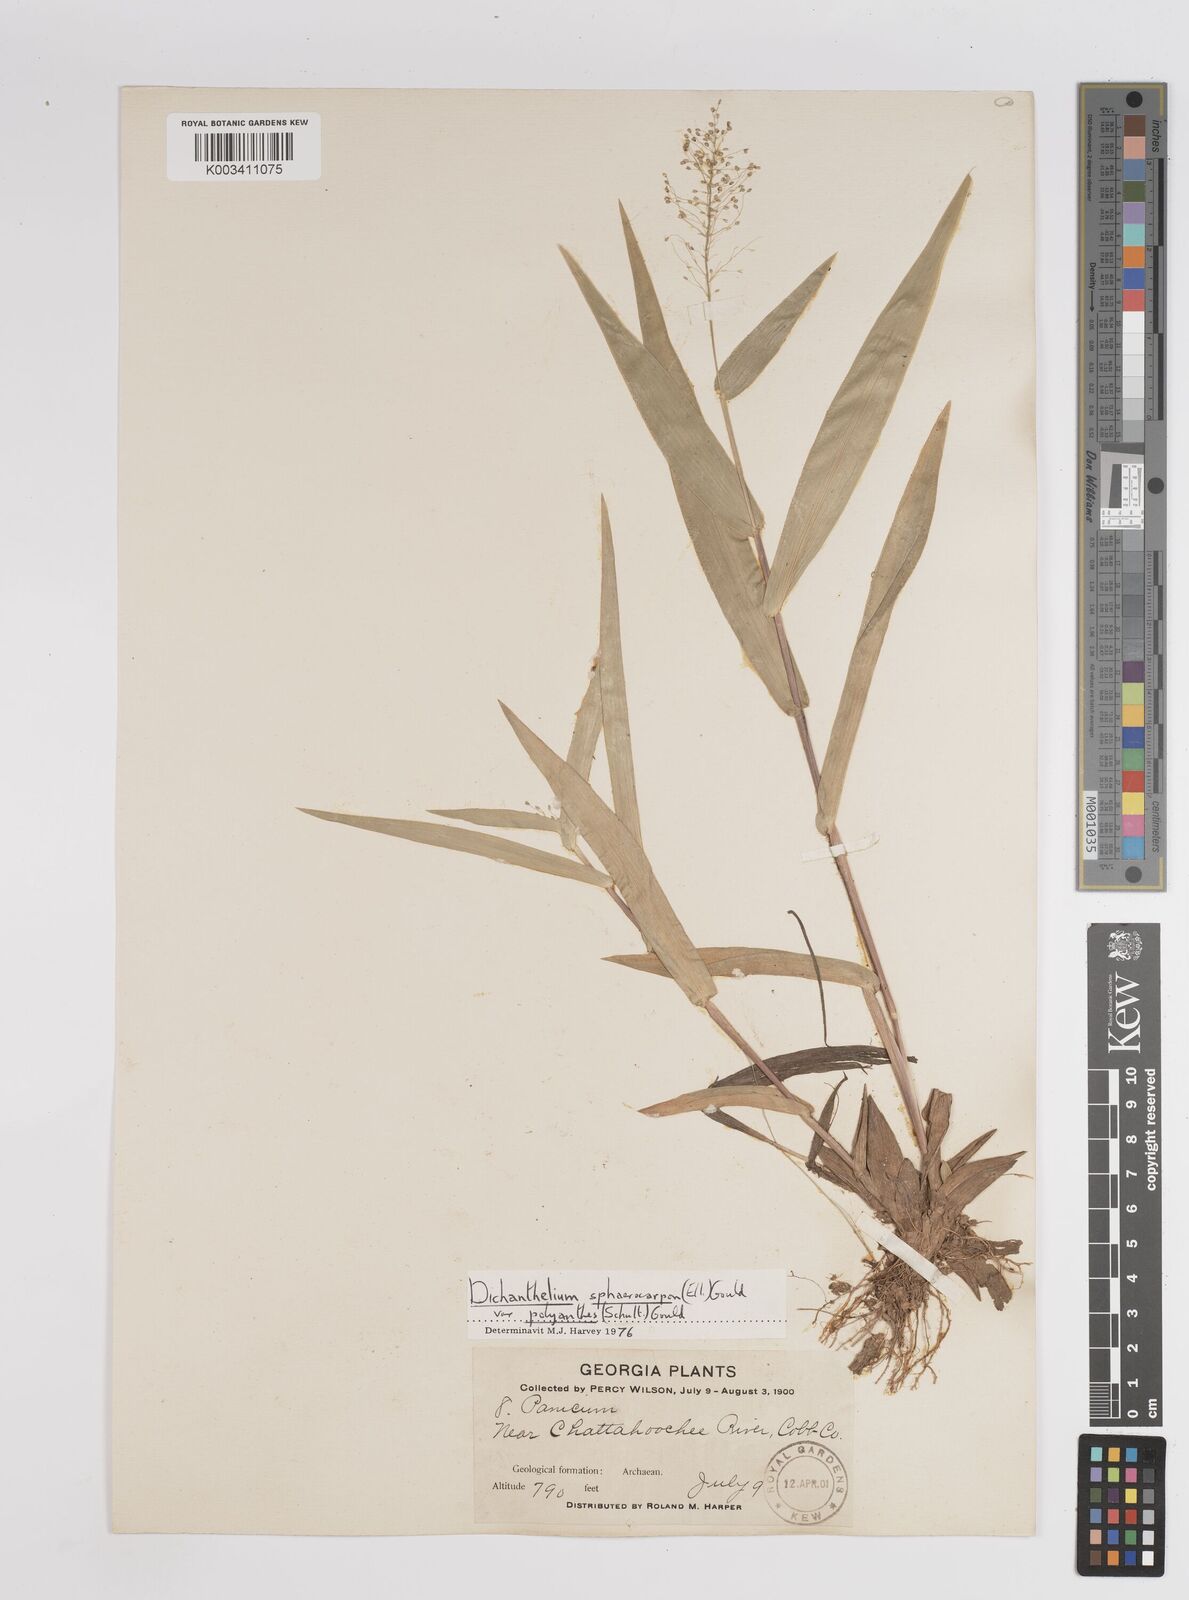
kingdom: Plantae
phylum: Tracheophyta
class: Liliopsida
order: Poales
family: Poaceae
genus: Dichanthelium
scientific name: Dichanthelium polyanthes
